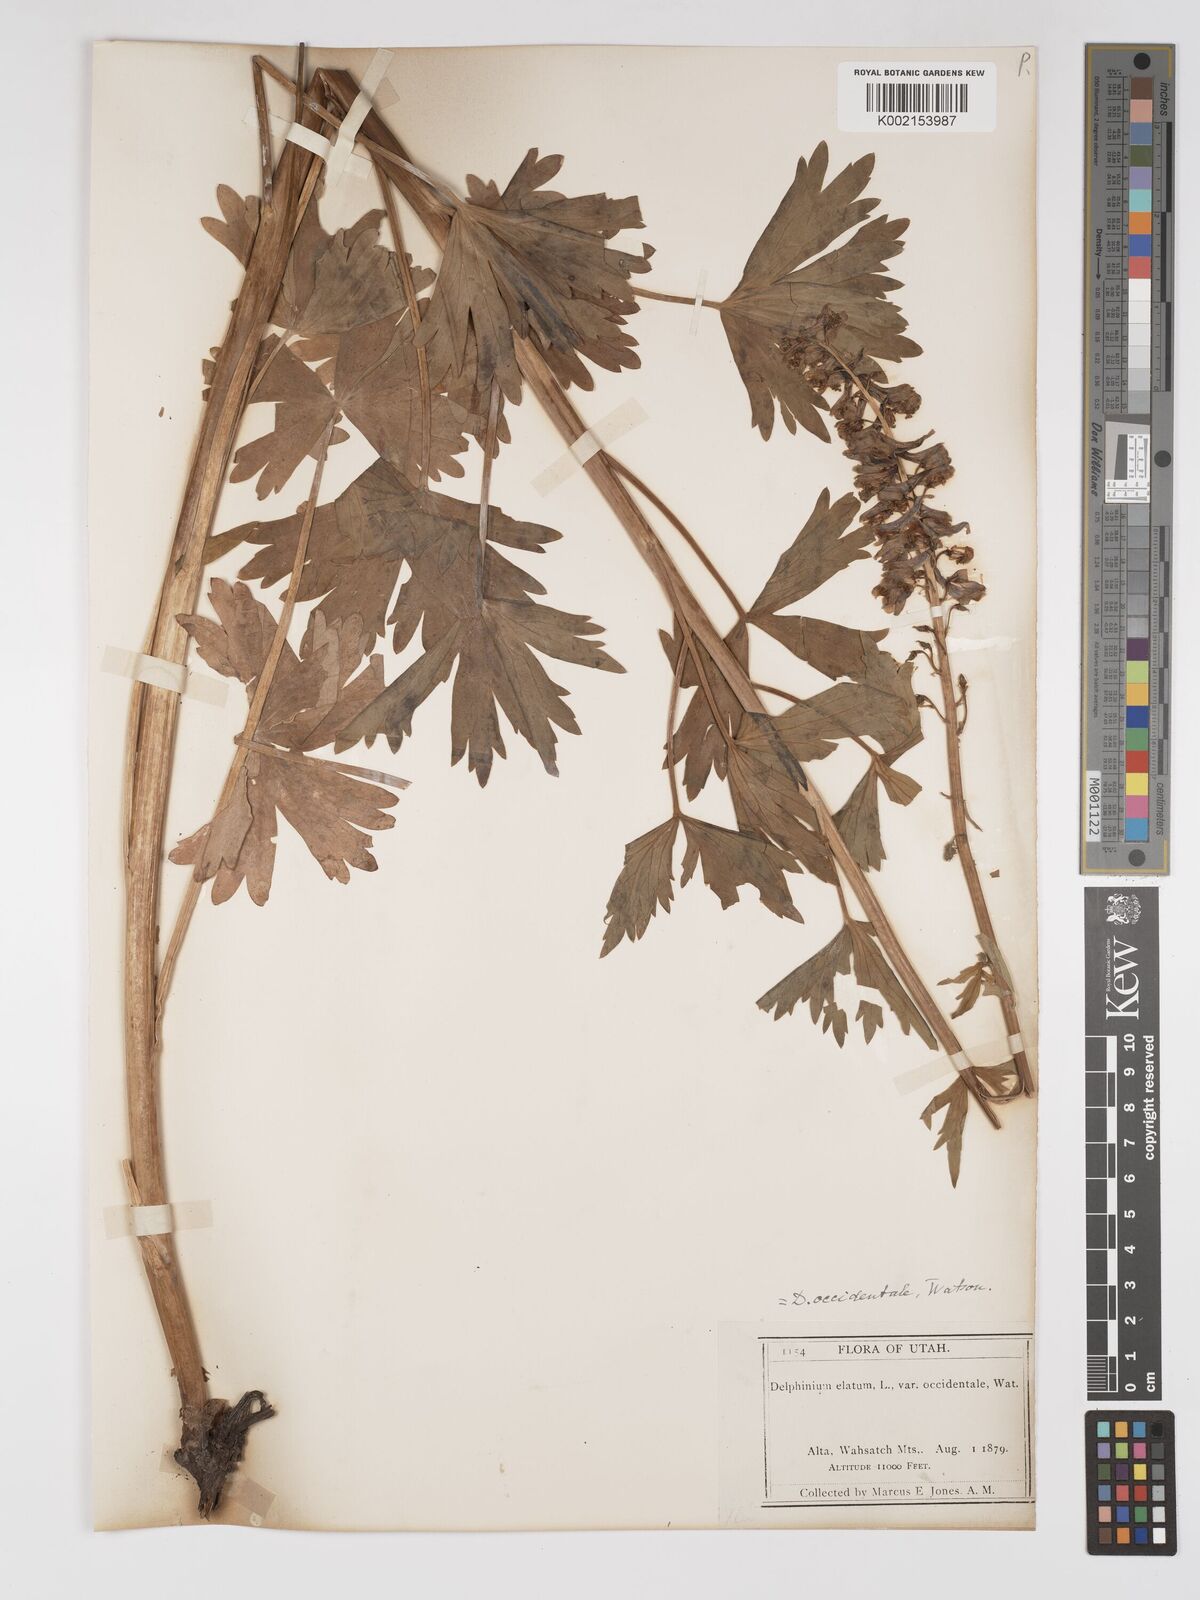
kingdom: Plantae
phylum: Tracheophyta
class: Magnoliopsida
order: Ranunculales
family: Ranunculaceae
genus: Delphinium
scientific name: Delphinium occidentale
